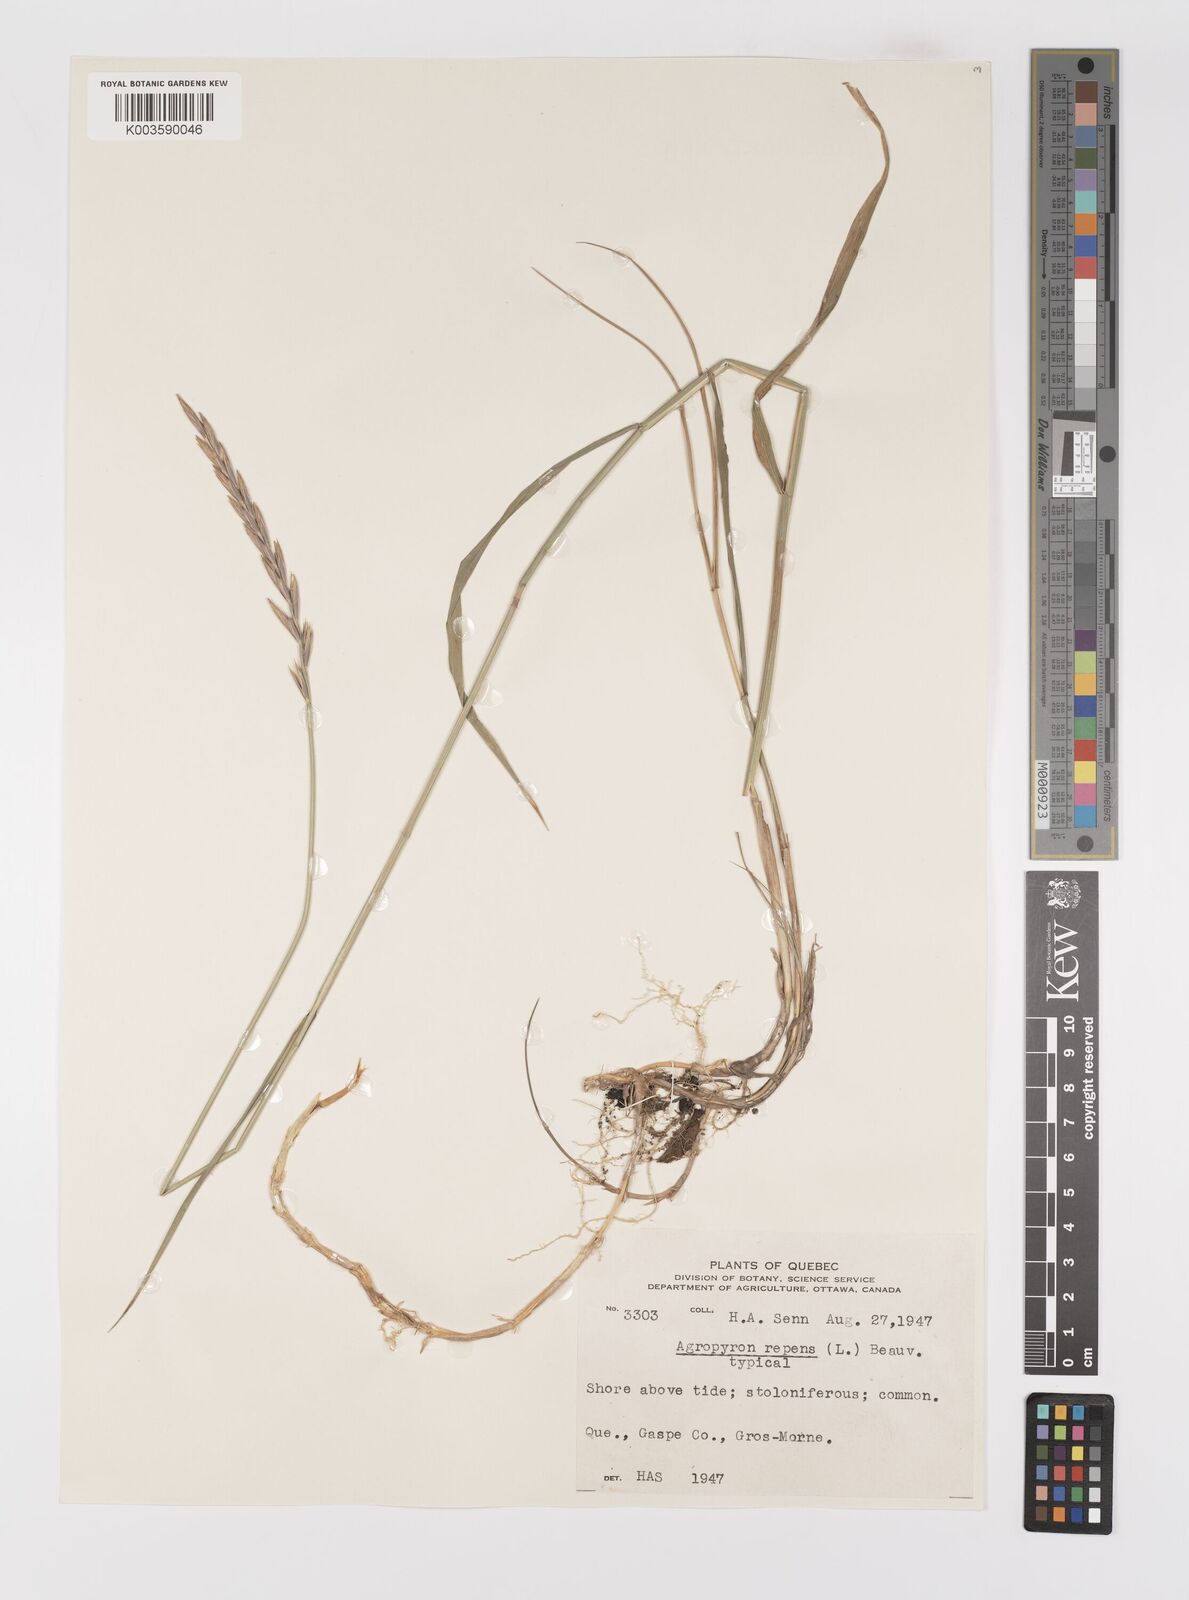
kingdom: Plantae
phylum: Tracheophyta
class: Liliopsida
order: Poales
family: Poaceae
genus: Elymus
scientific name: Elymus repens
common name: Quackgrass
